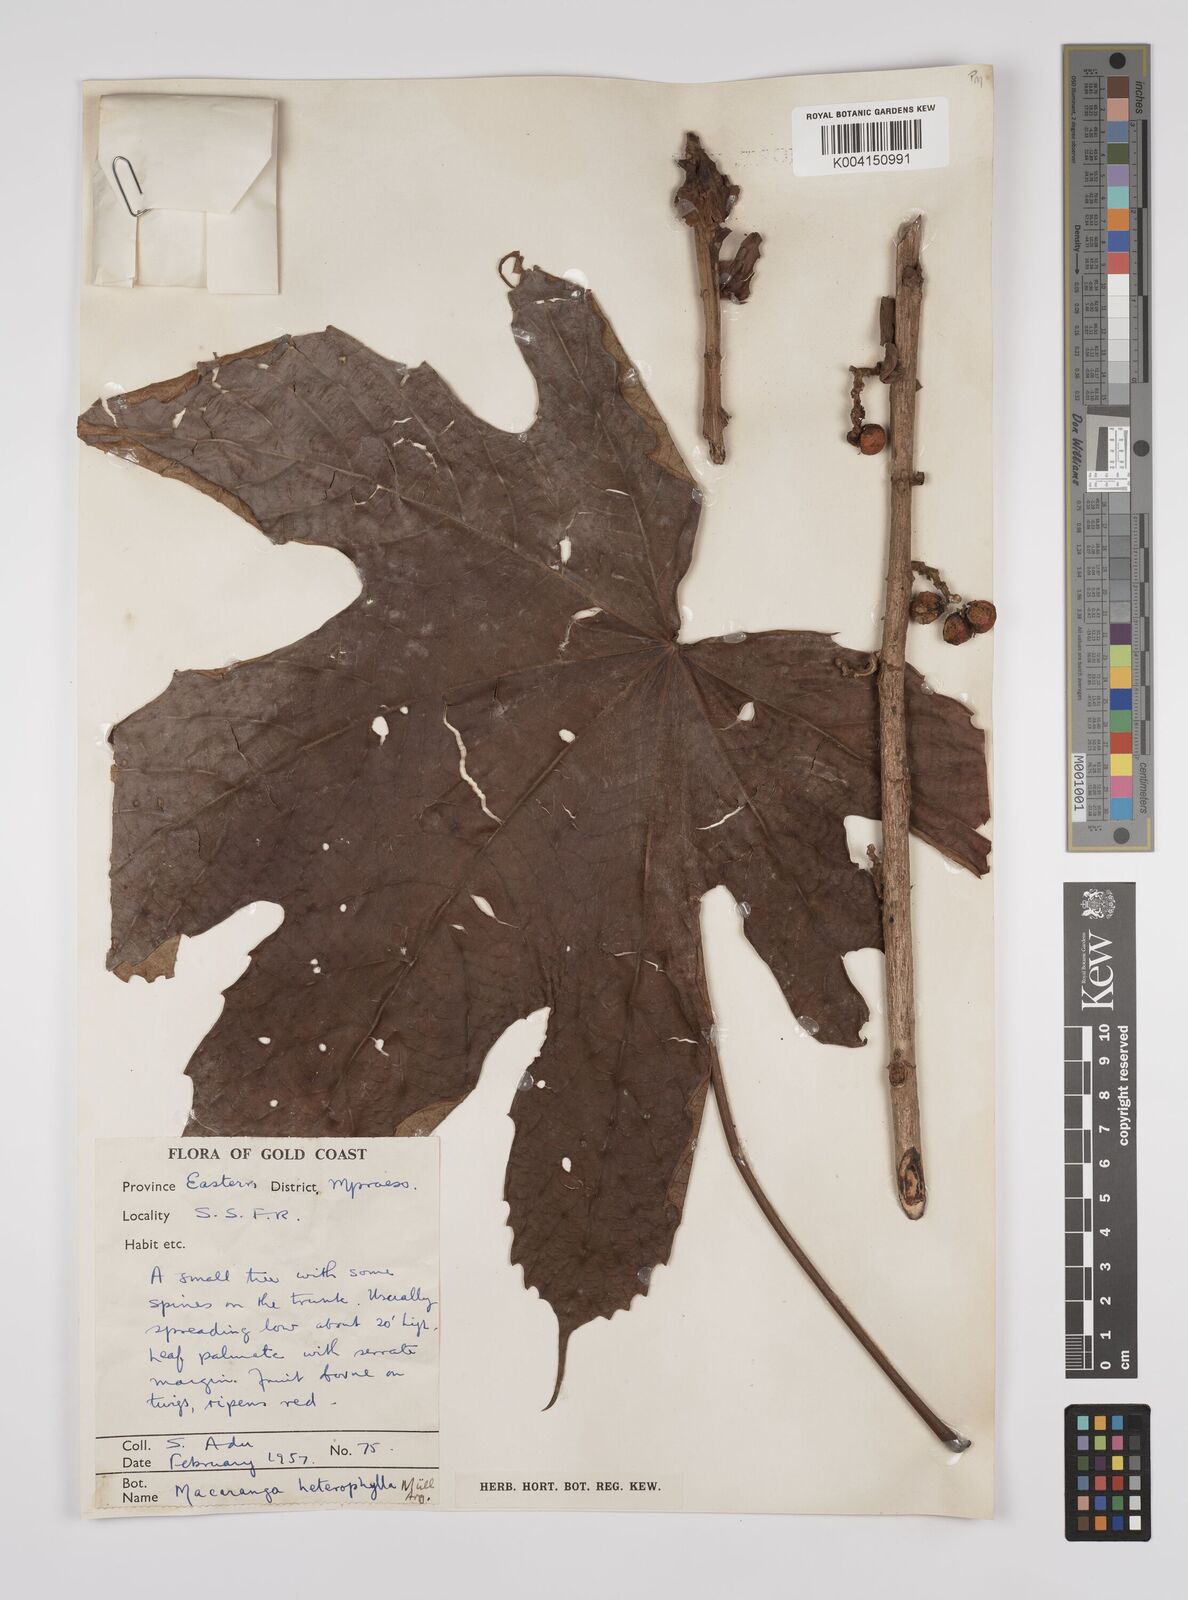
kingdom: Plantae
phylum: Tracheophyta
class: Magnoliopsida
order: Malpighiales
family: Euphorbiaceae
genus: Macaranga
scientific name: Macaranga heterophylla
